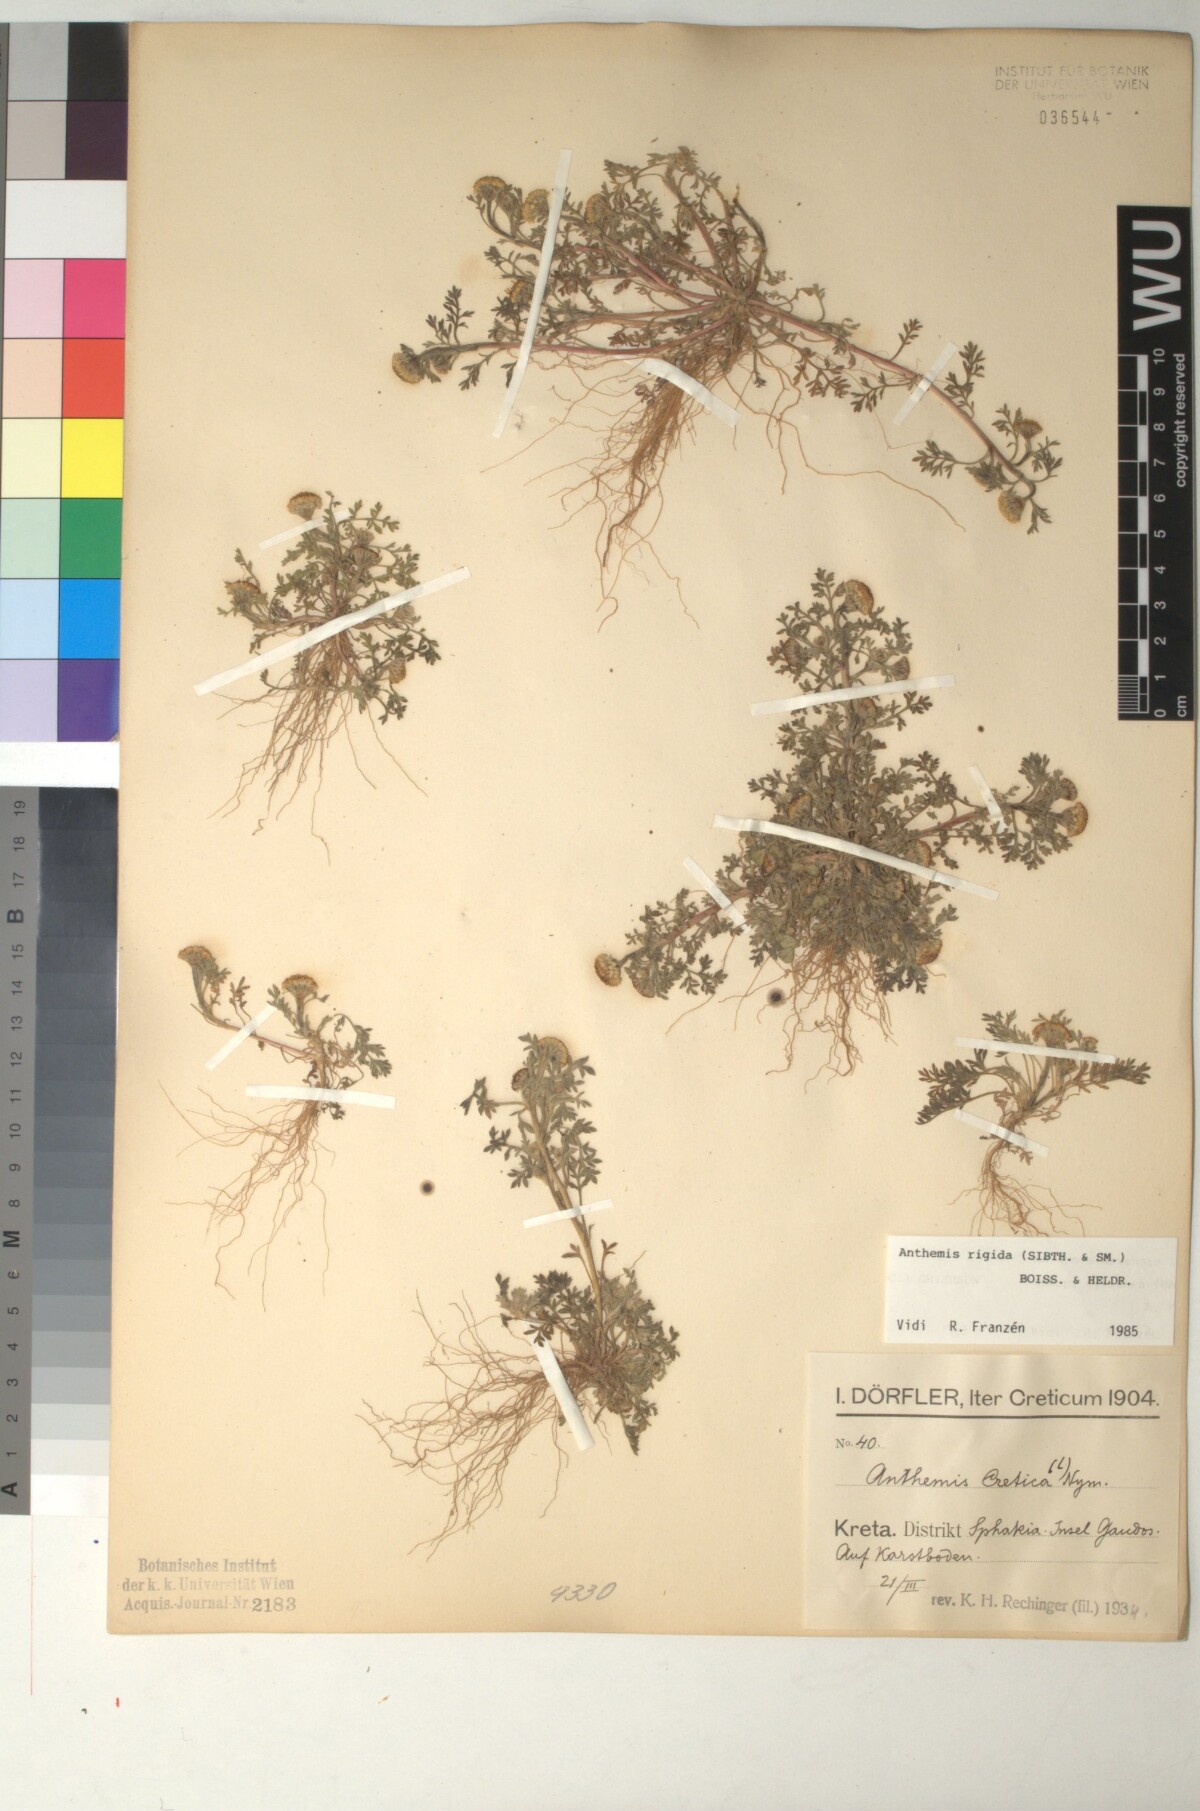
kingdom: Plantae
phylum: Tracheophyta
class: Magnoliopsida
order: Asterales
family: Asteraceae
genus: Anthemis
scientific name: Anthemis rigida
